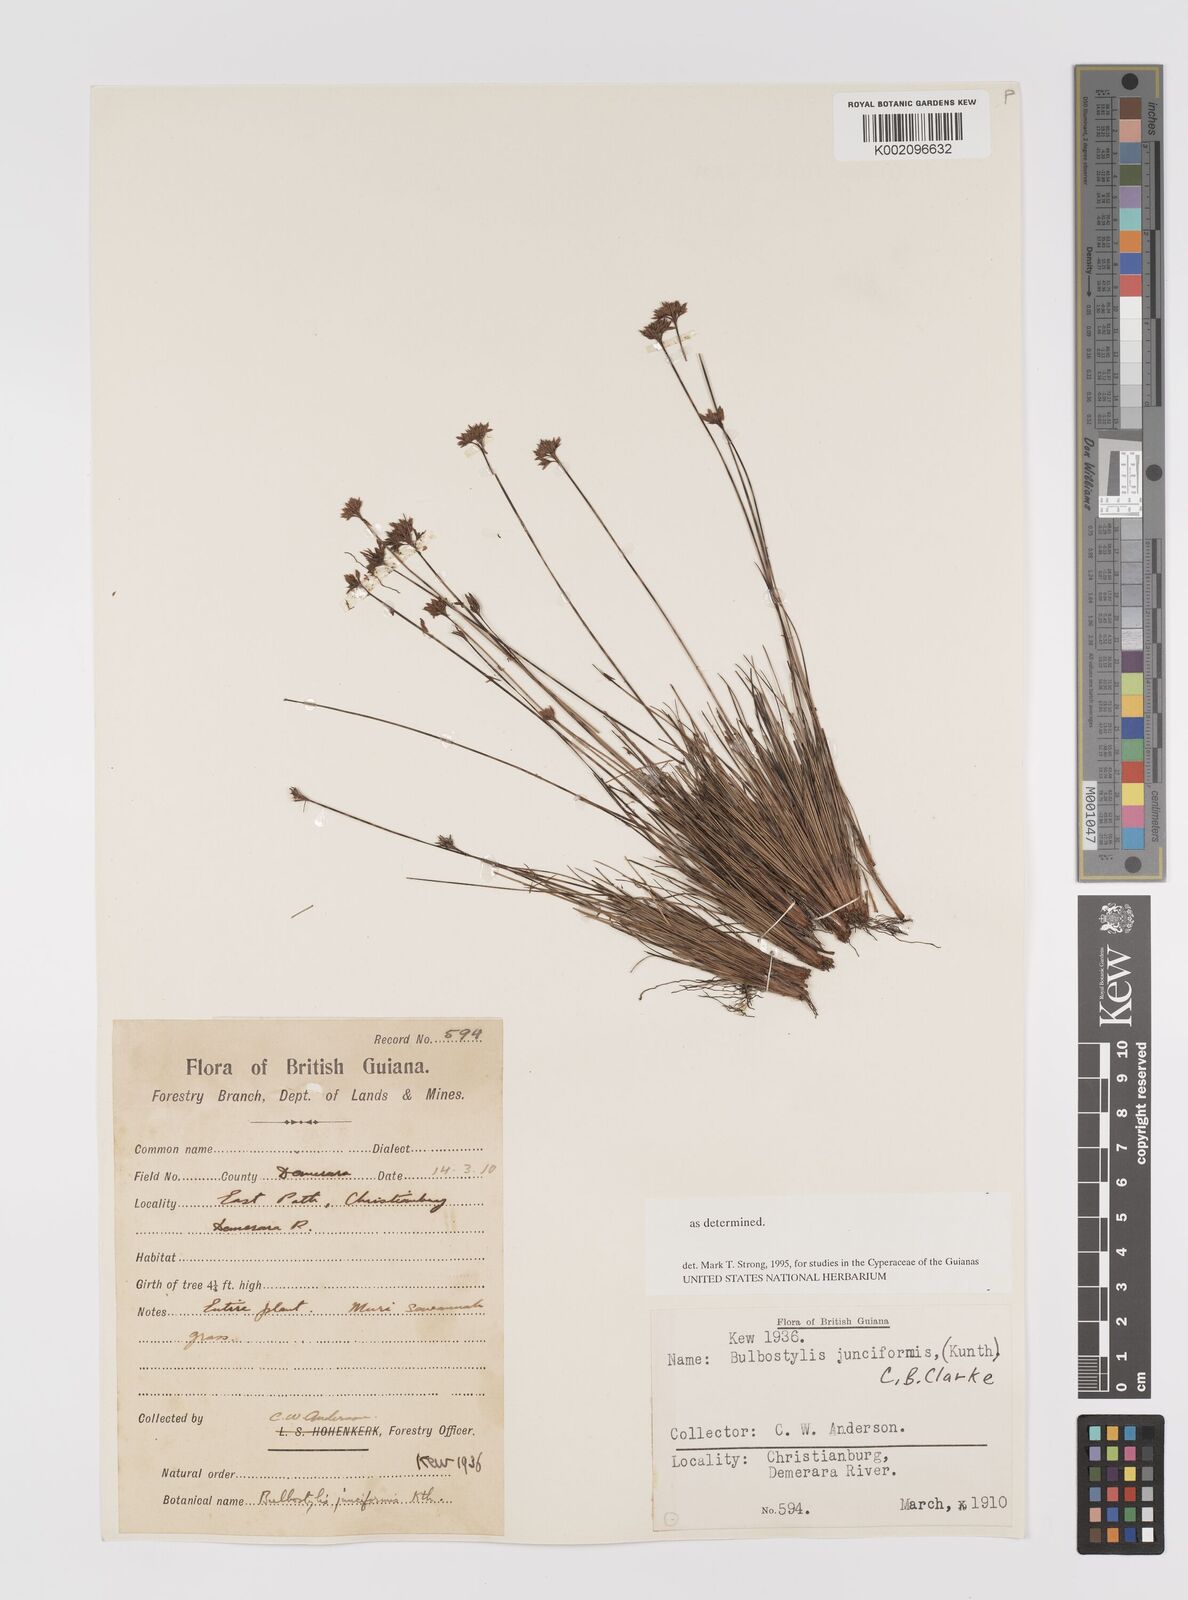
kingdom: Plantae
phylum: Tracheophyta
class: Liliopsida
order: Poales
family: Cyperaceae
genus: Bulbostylis
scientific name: Bulbostylis junciformis
